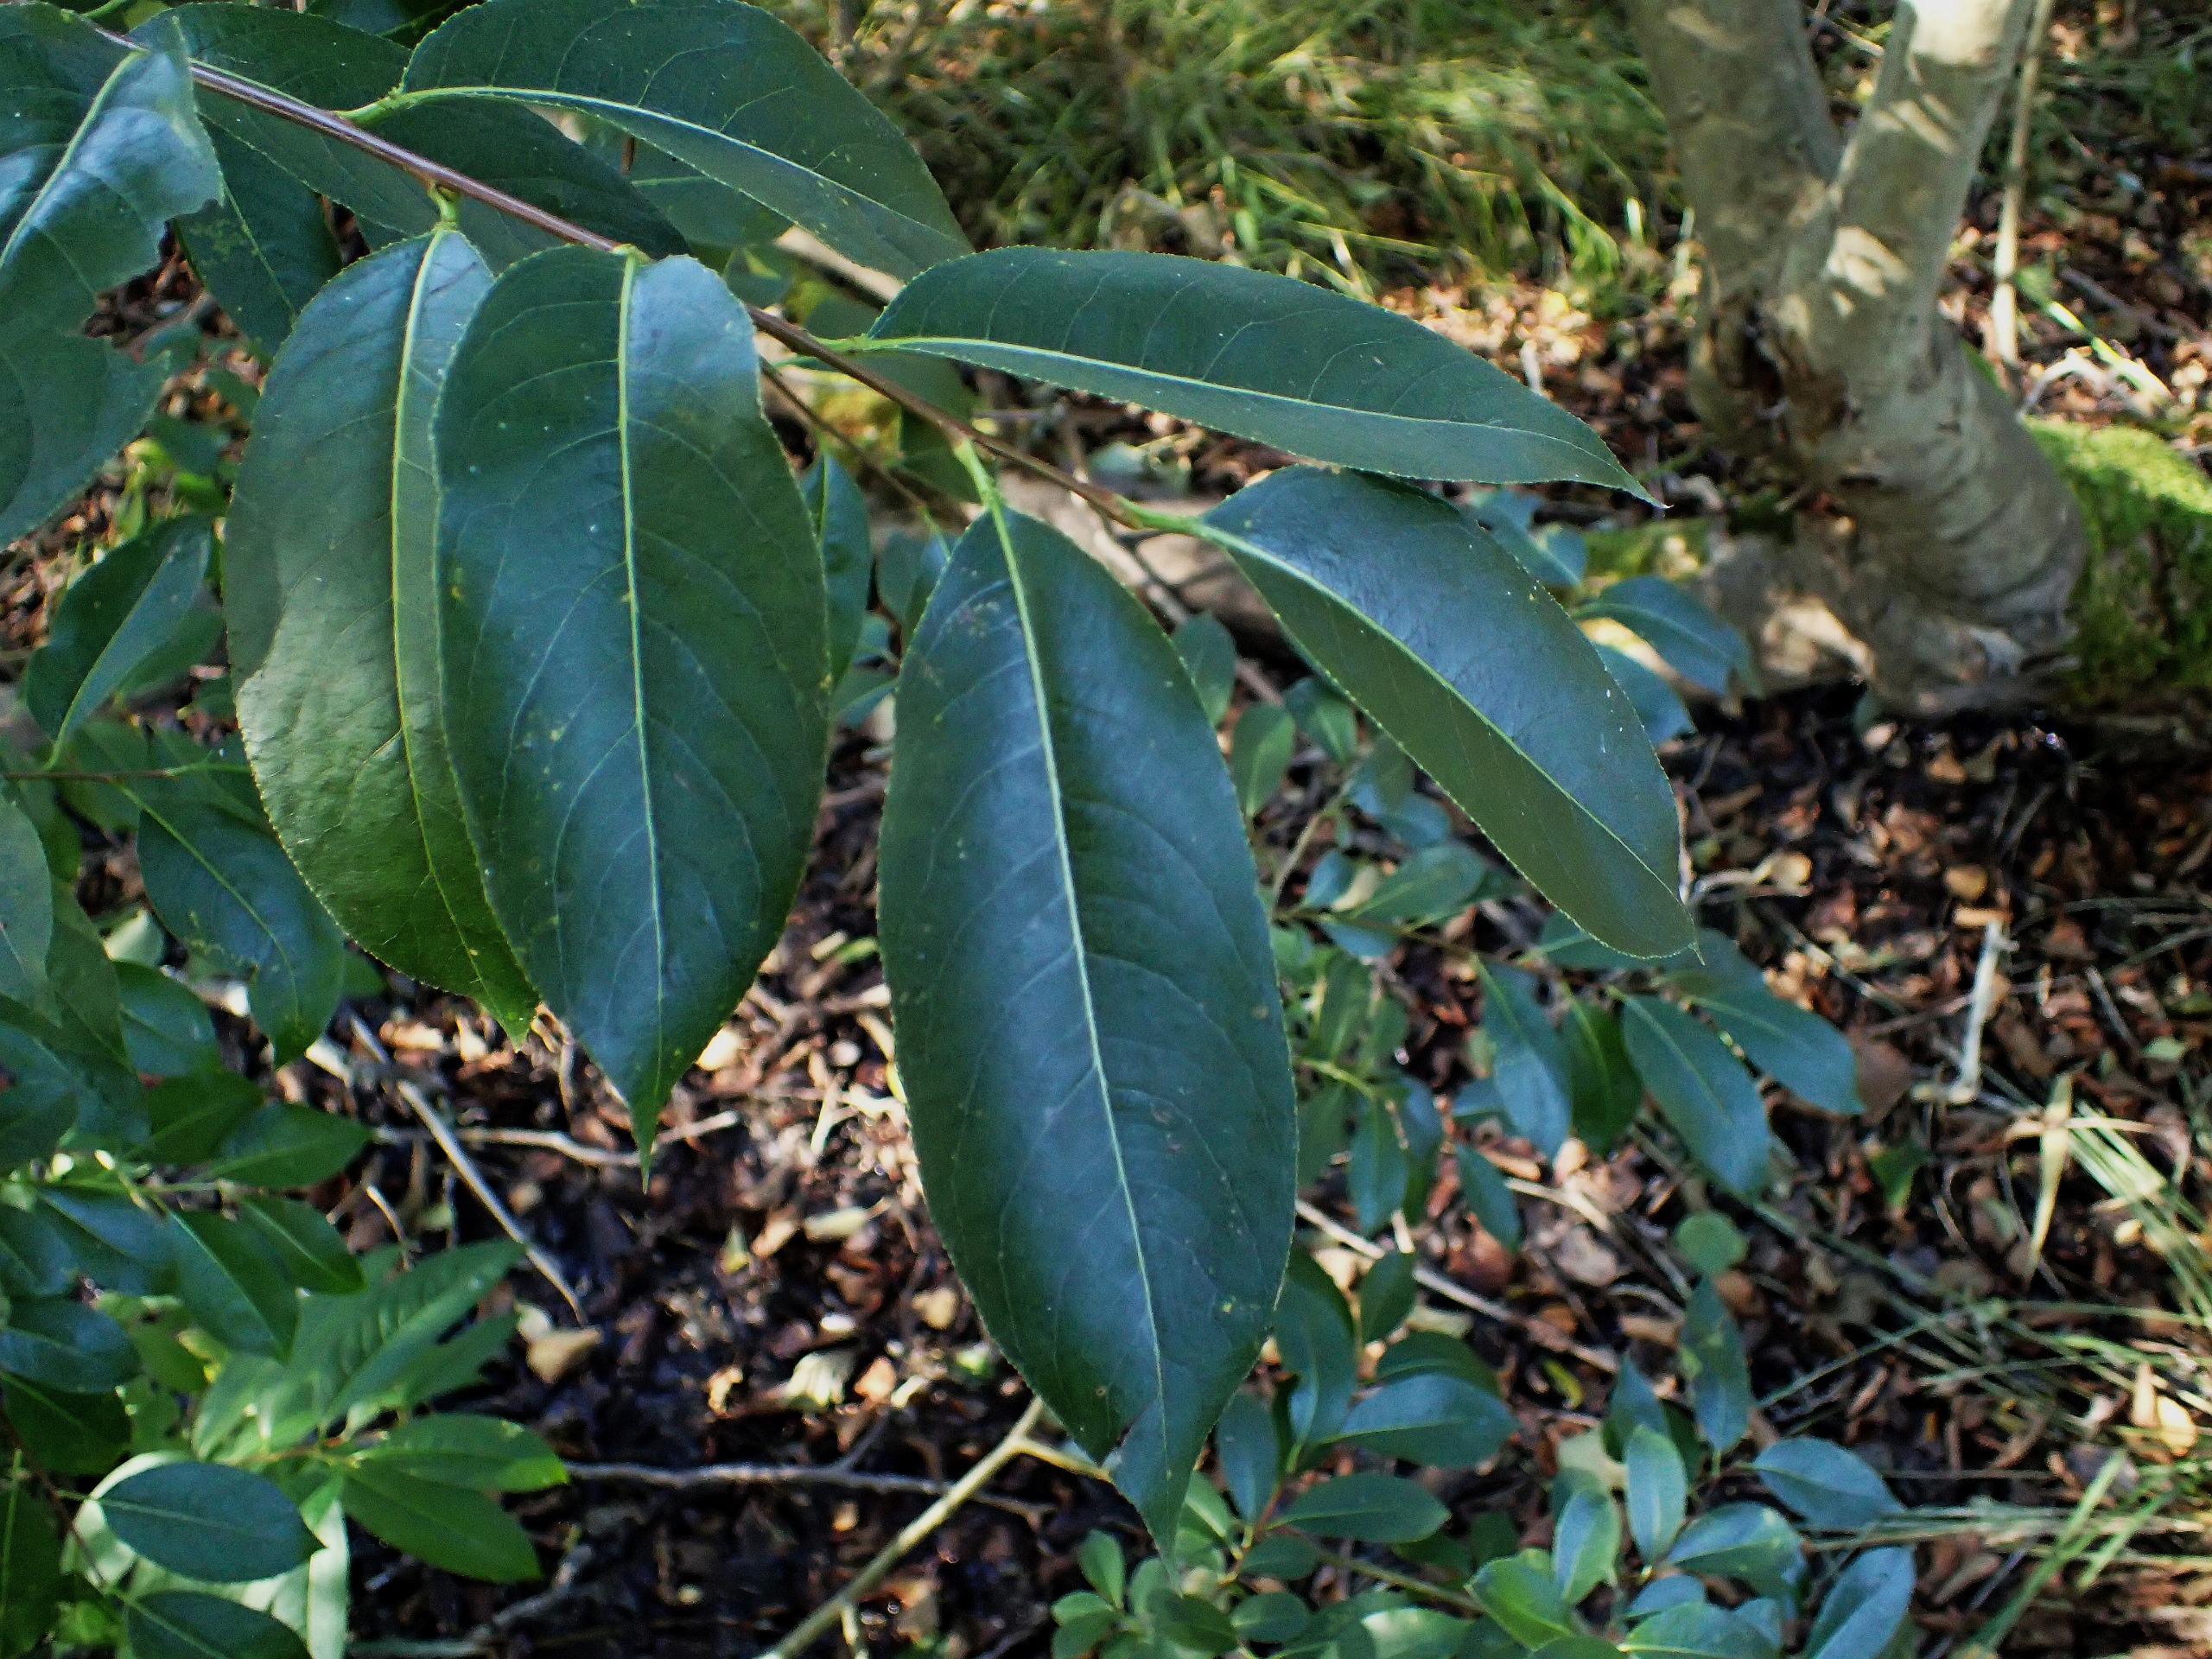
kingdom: Plantae
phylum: Tracheophyta
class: Magnoliopsida
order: Rosales
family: Rosaceae
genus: Prunus
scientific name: Prunus serotina
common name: Glansbladet hæg
